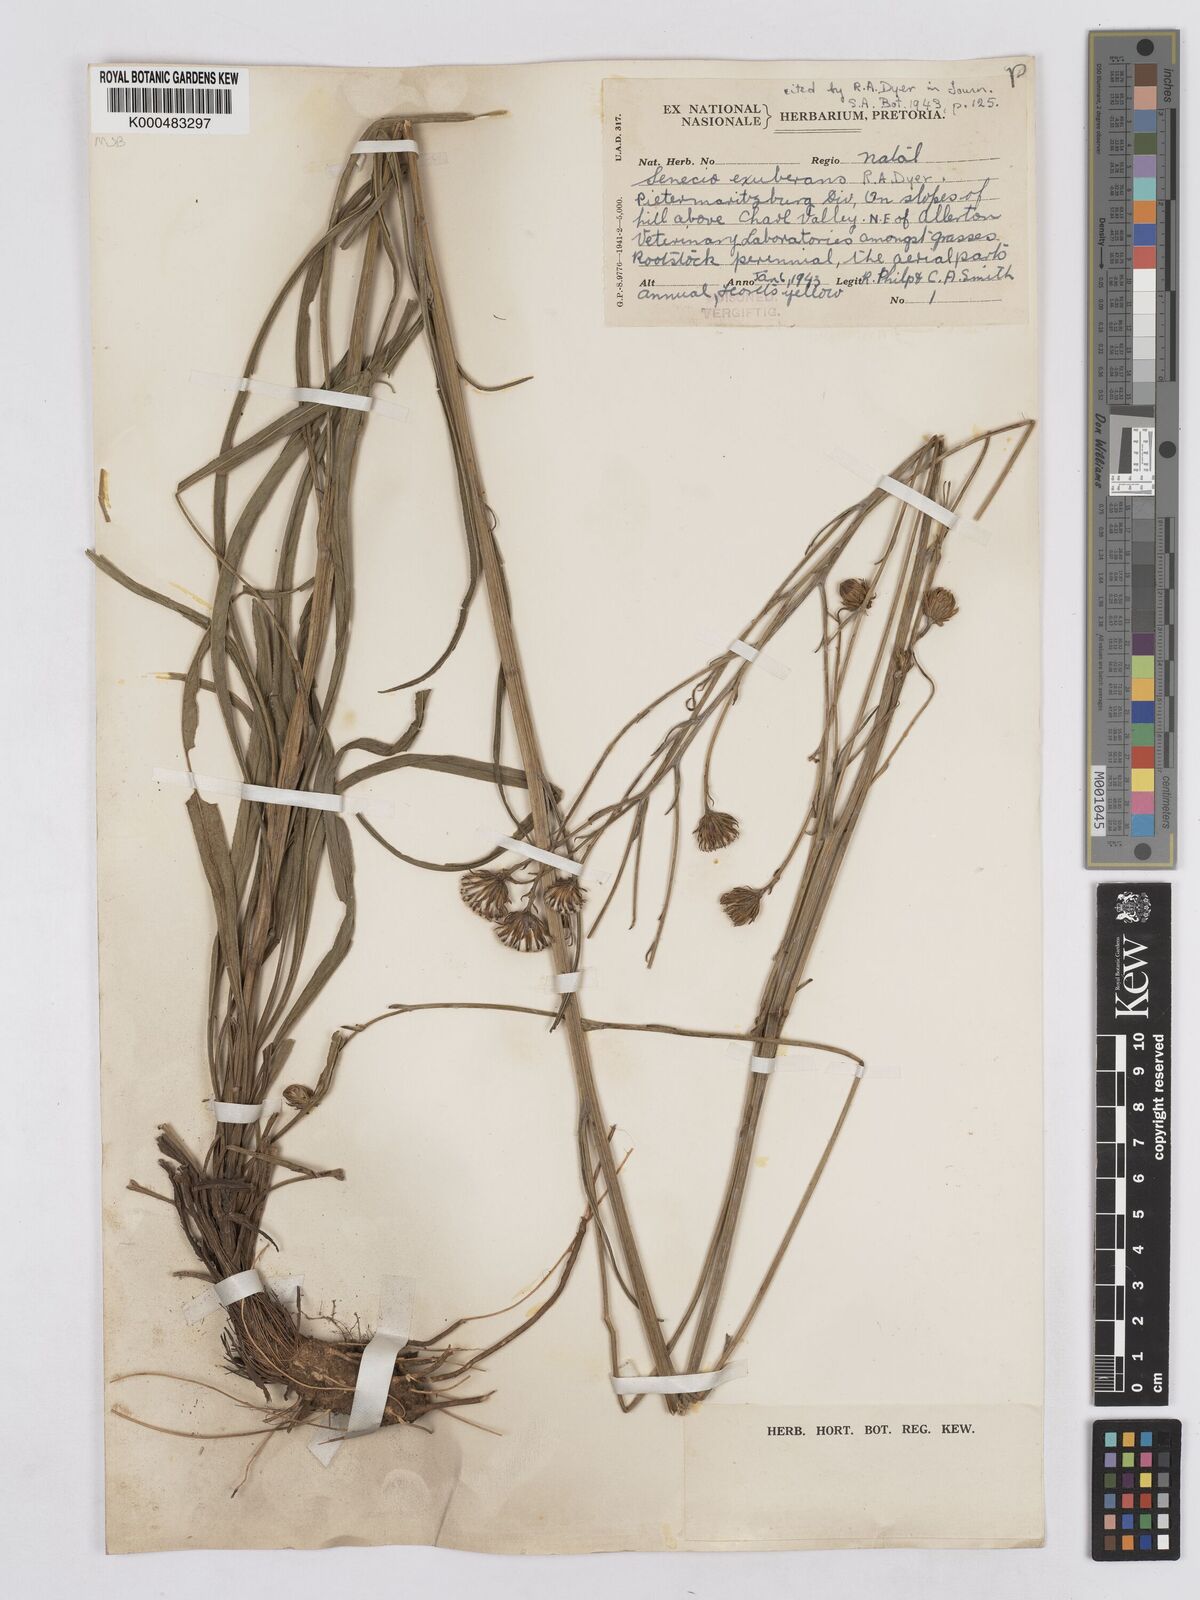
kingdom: Plantae
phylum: Tracheophyta
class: Magnoliopsida
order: Asterales
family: Asteraceae
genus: Senecio
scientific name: Senecio exuberans
